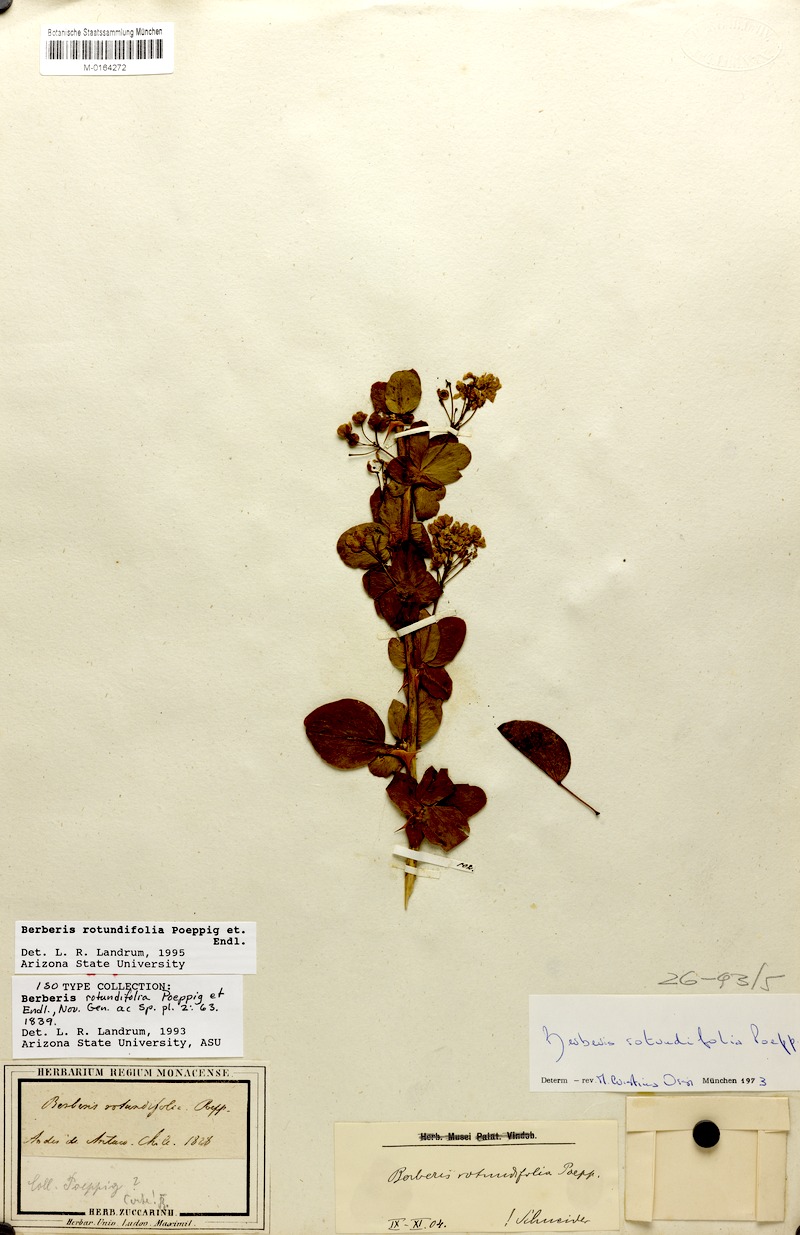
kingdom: Plantae
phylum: Tracheophyta
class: Magnoliopsida
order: Ranunculales
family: Berberidaceae
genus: Berberis
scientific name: Berberis rotundifolia
